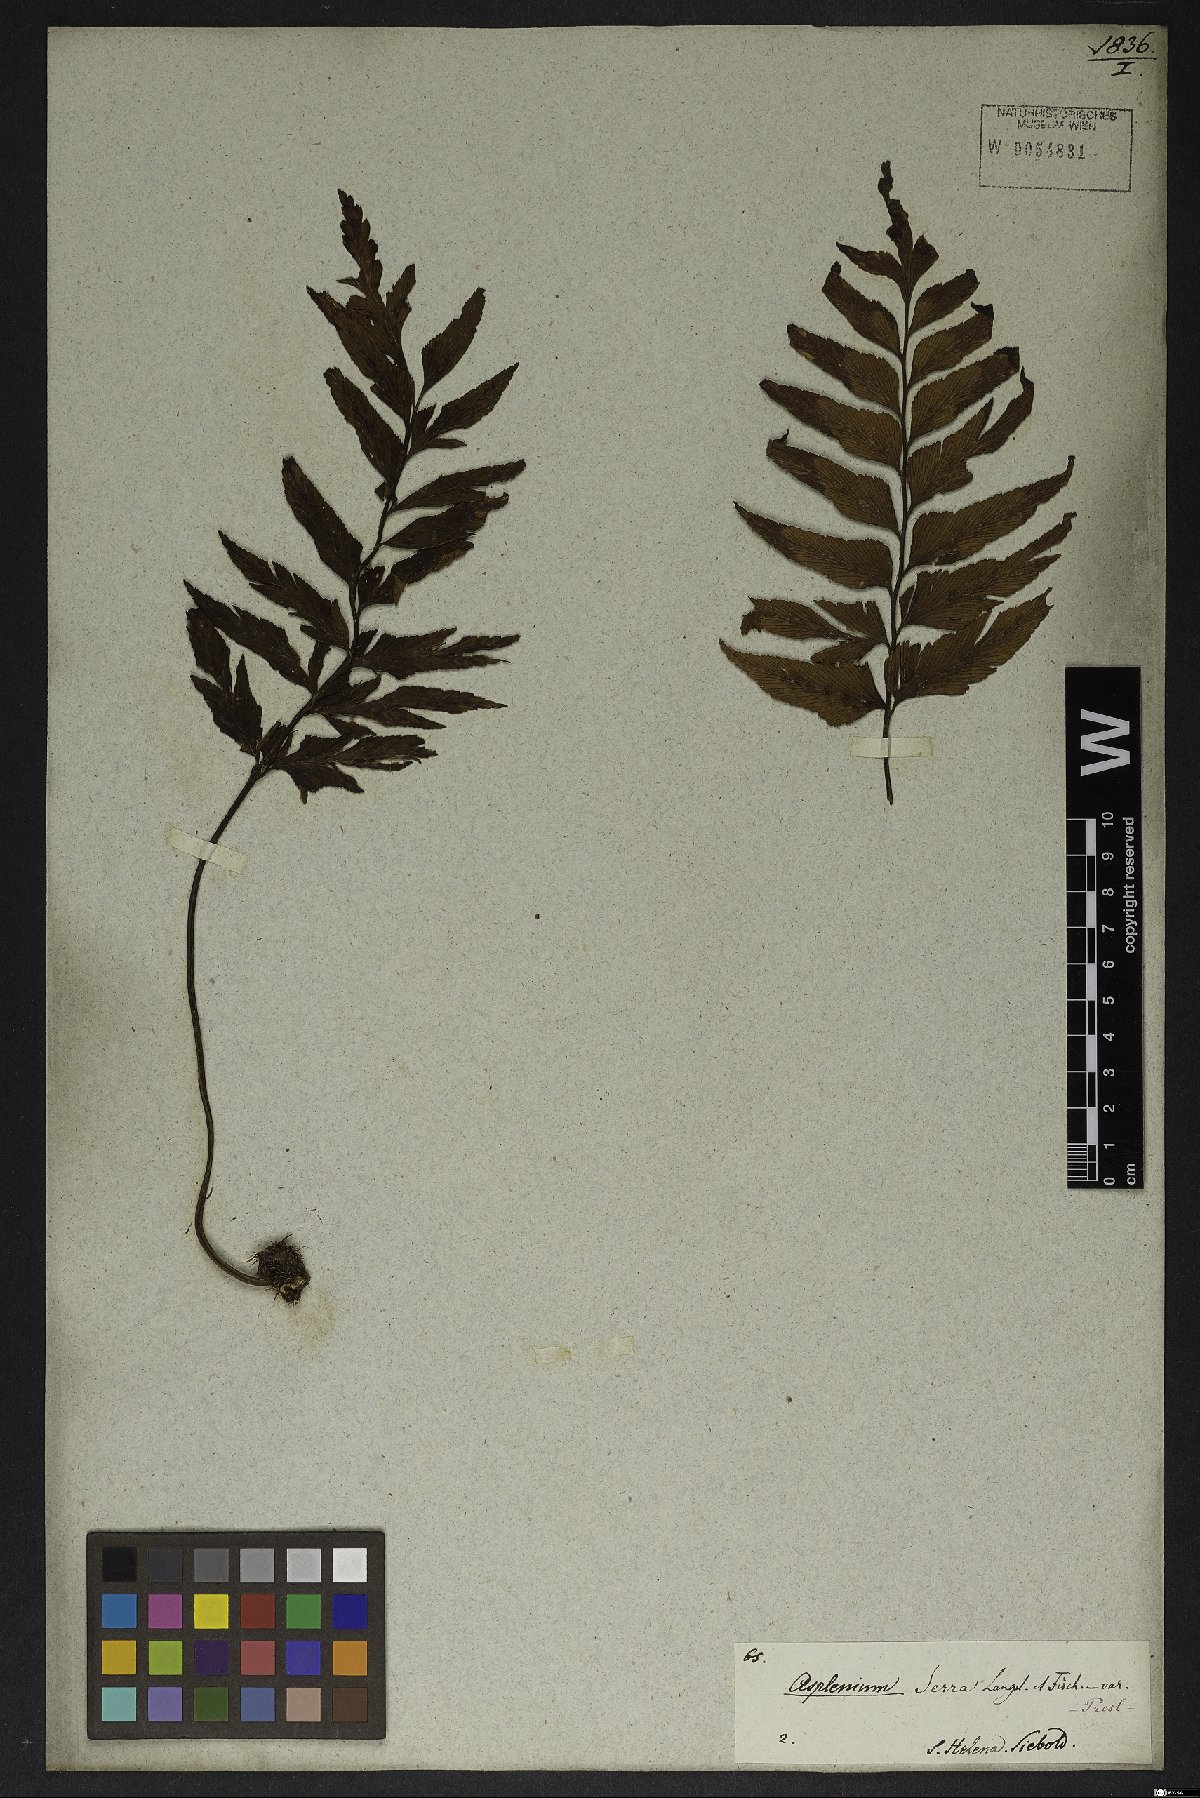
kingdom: Plantae
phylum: Tracheophyta
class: Polypodiopsida
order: Polypodiales
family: Aspleniaceae
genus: Asplenium
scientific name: Asplenium serra
